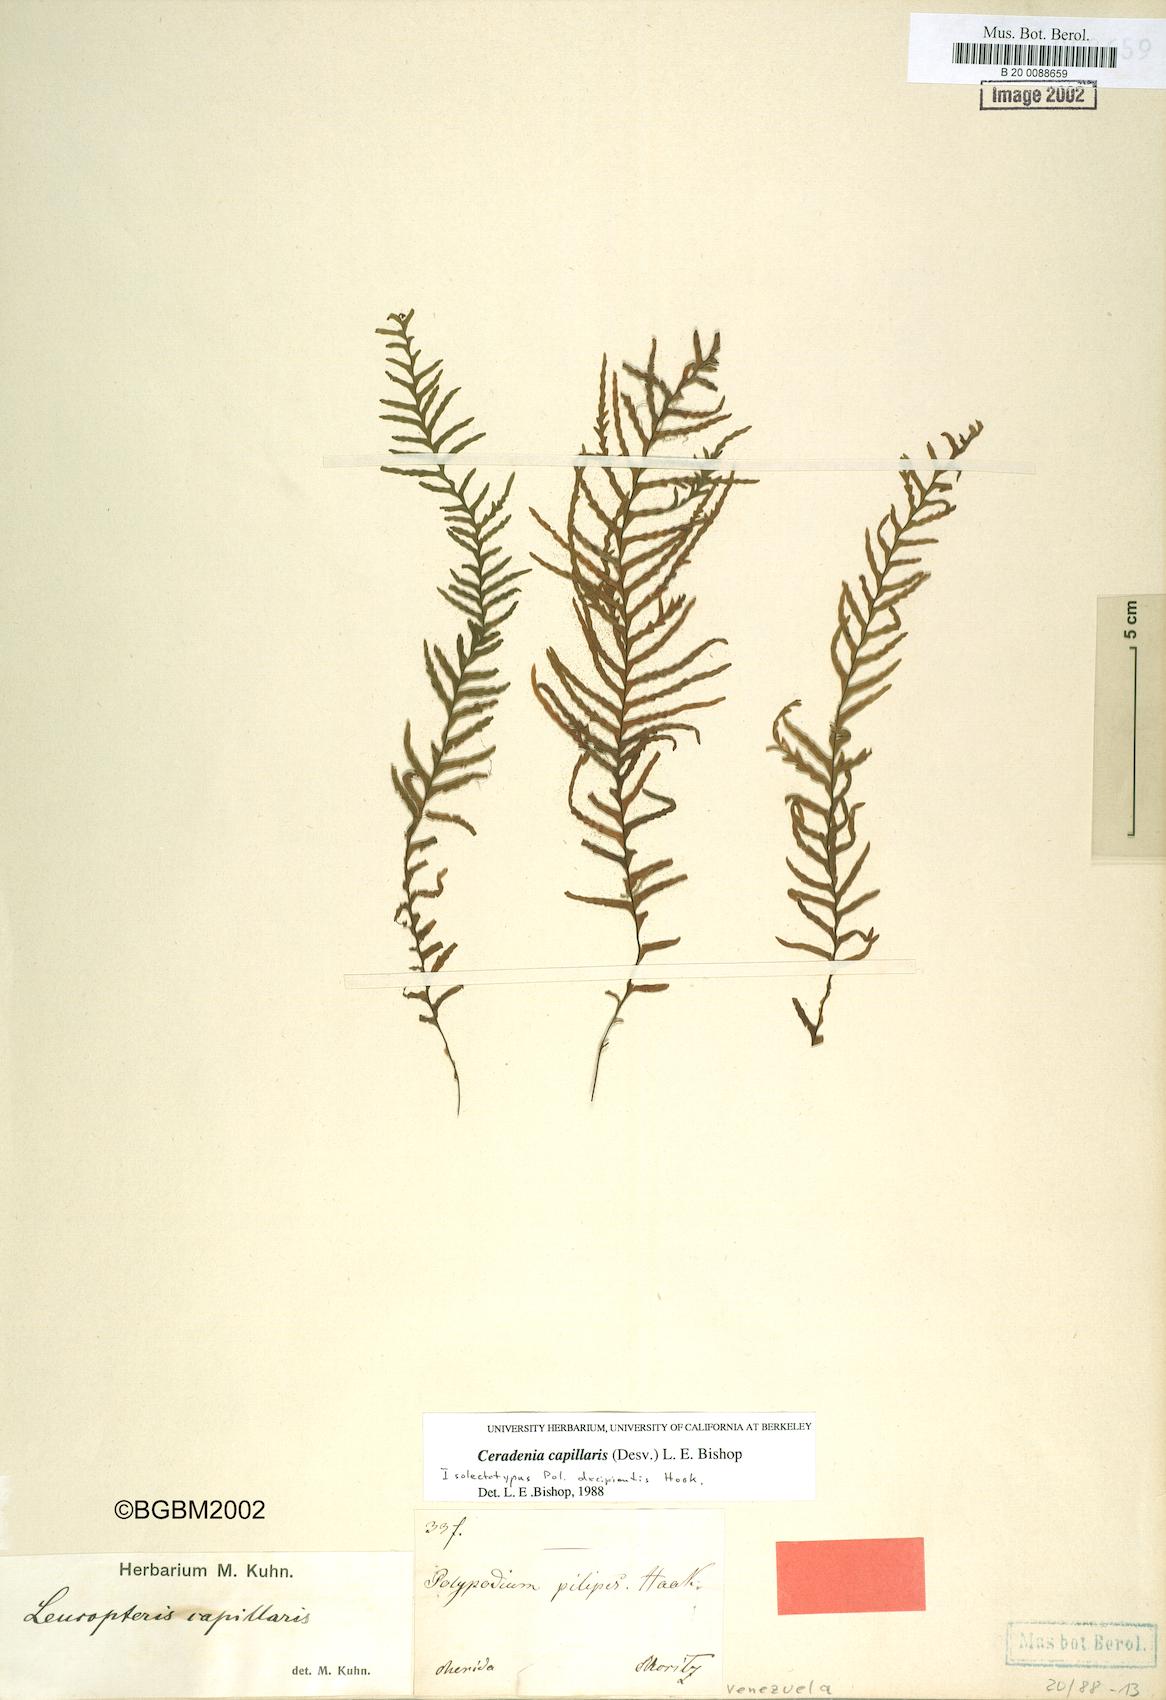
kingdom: Plantae
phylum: Tracheophyta
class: Polypodiopsida
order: Polypodiales
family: Polypodiaceae
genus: Ceradenia
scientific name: Ceradenia pilipes
